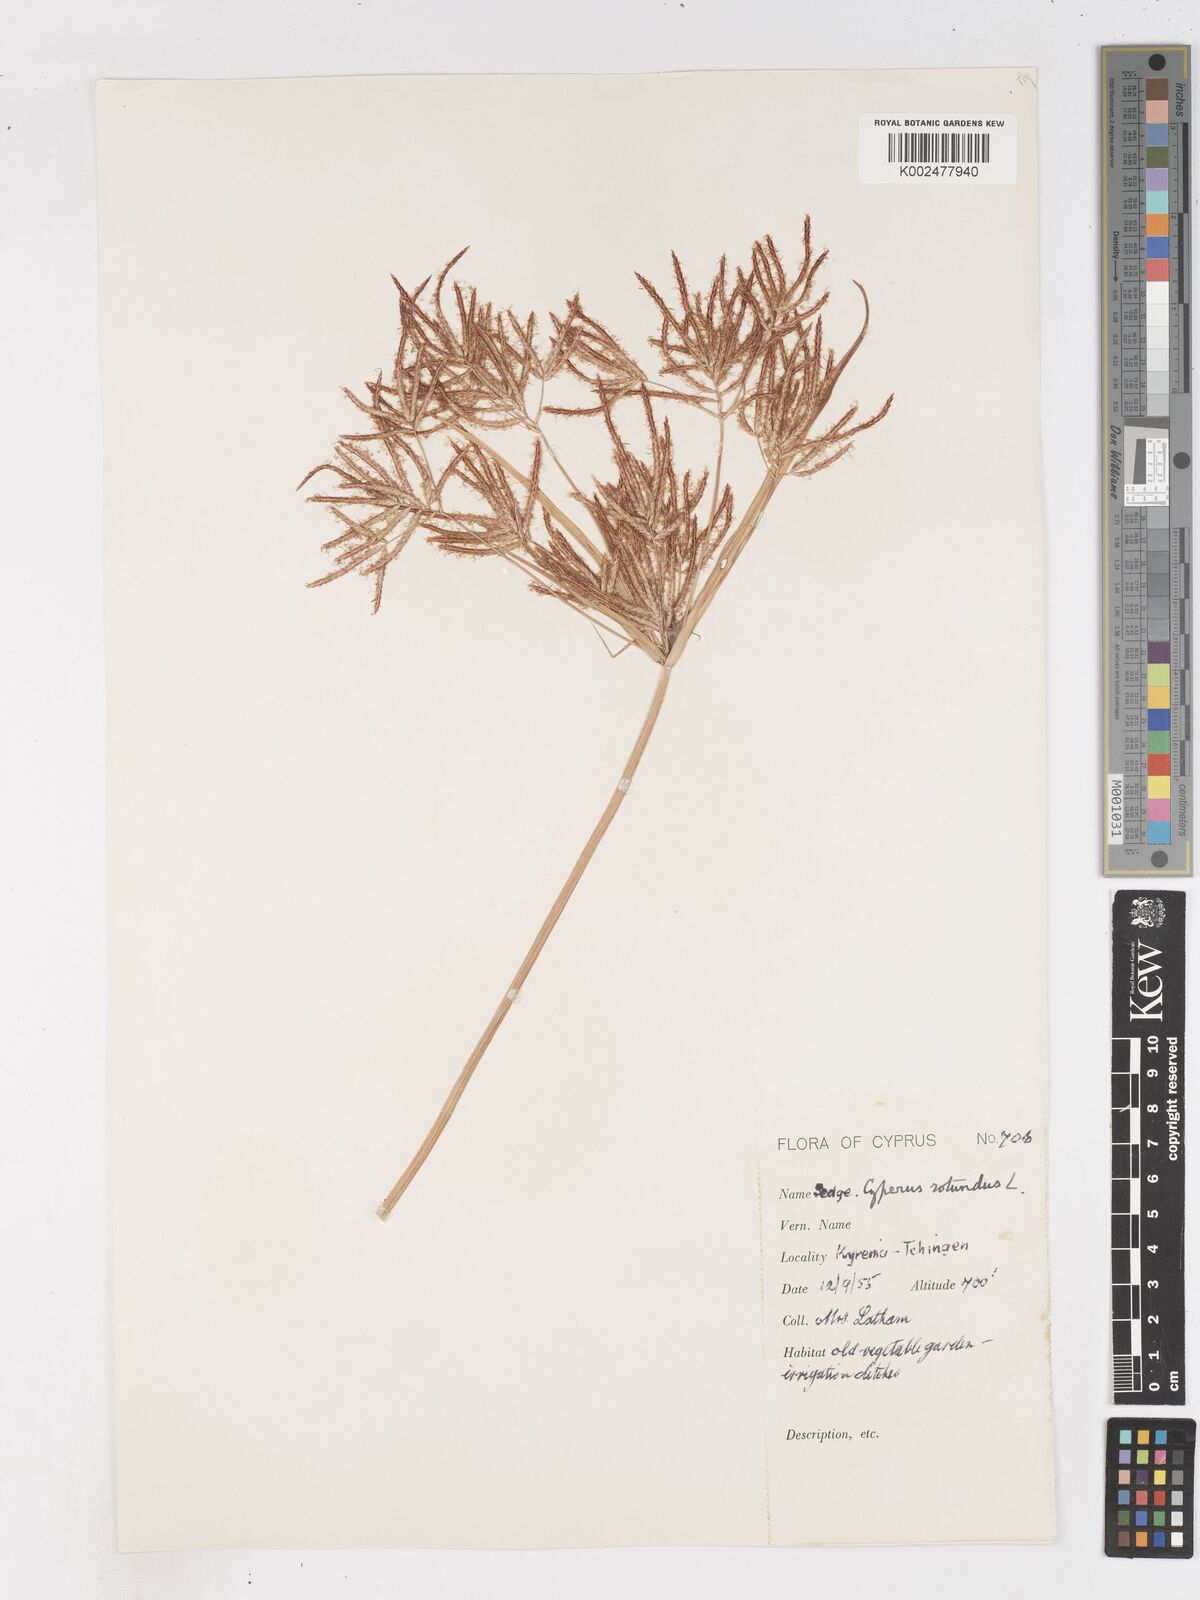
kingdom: Plantae
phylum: Tracheophyta
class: Liliopsida
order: Poales
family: Cyperaceae
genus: Cyperus
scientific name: Cyperus rotundus
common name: Nutgrass
